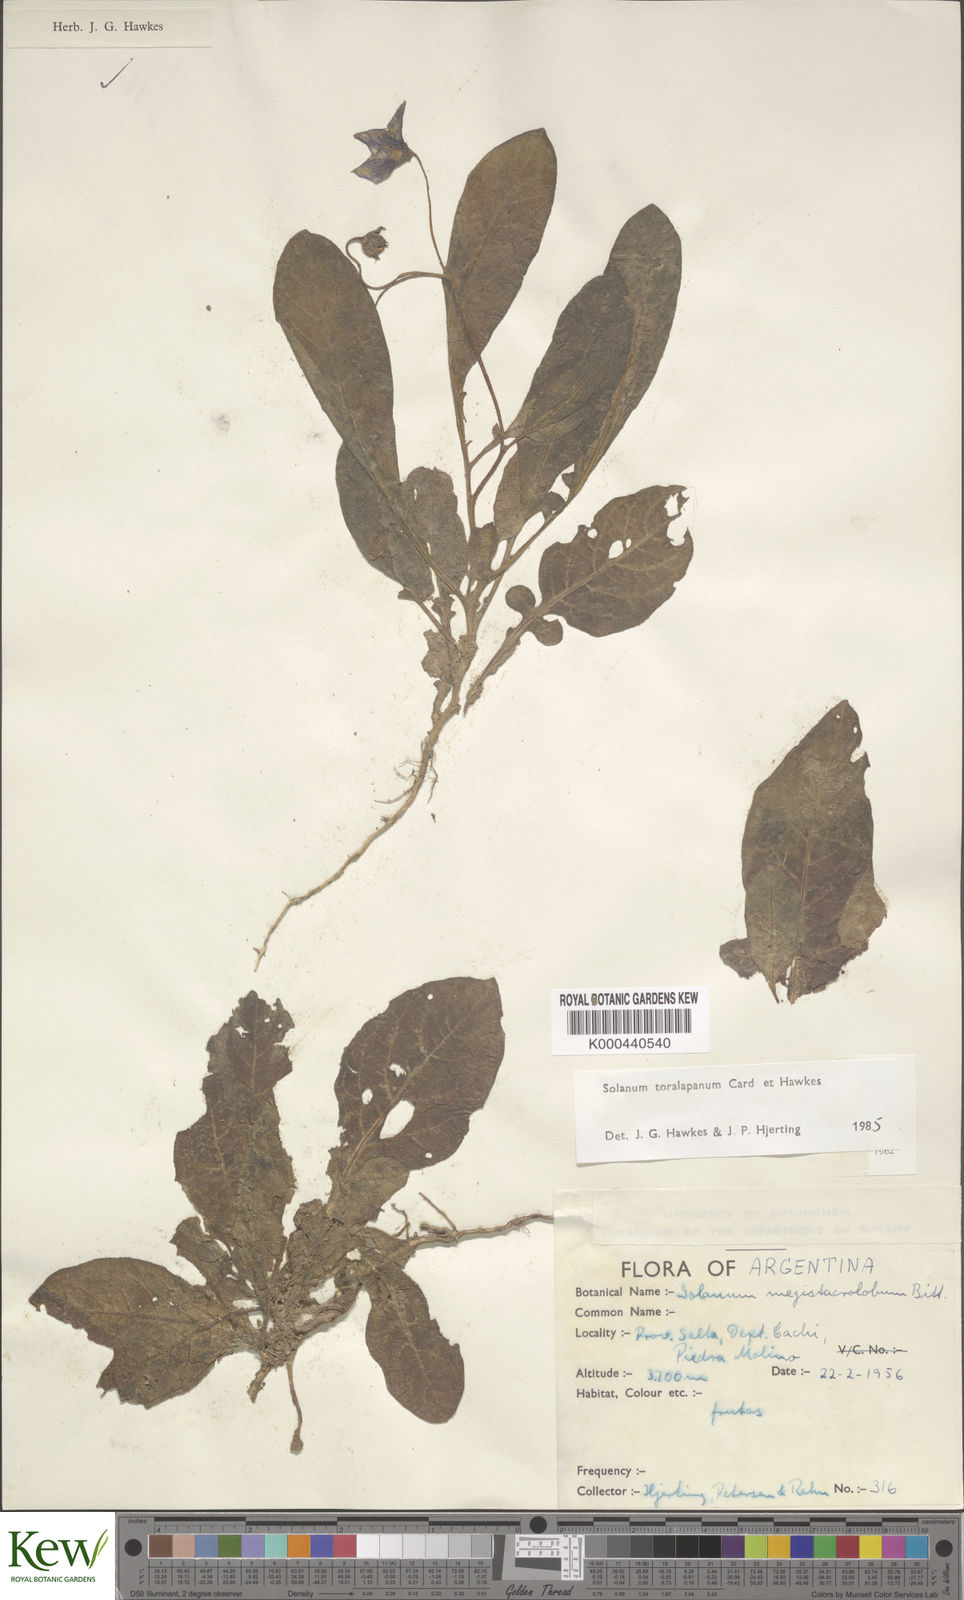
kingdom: Plantae
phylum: Tracheophyta
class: Magnoliopsida
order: Solanales
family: Solanaceae
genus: Solanum
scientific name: Solanum
